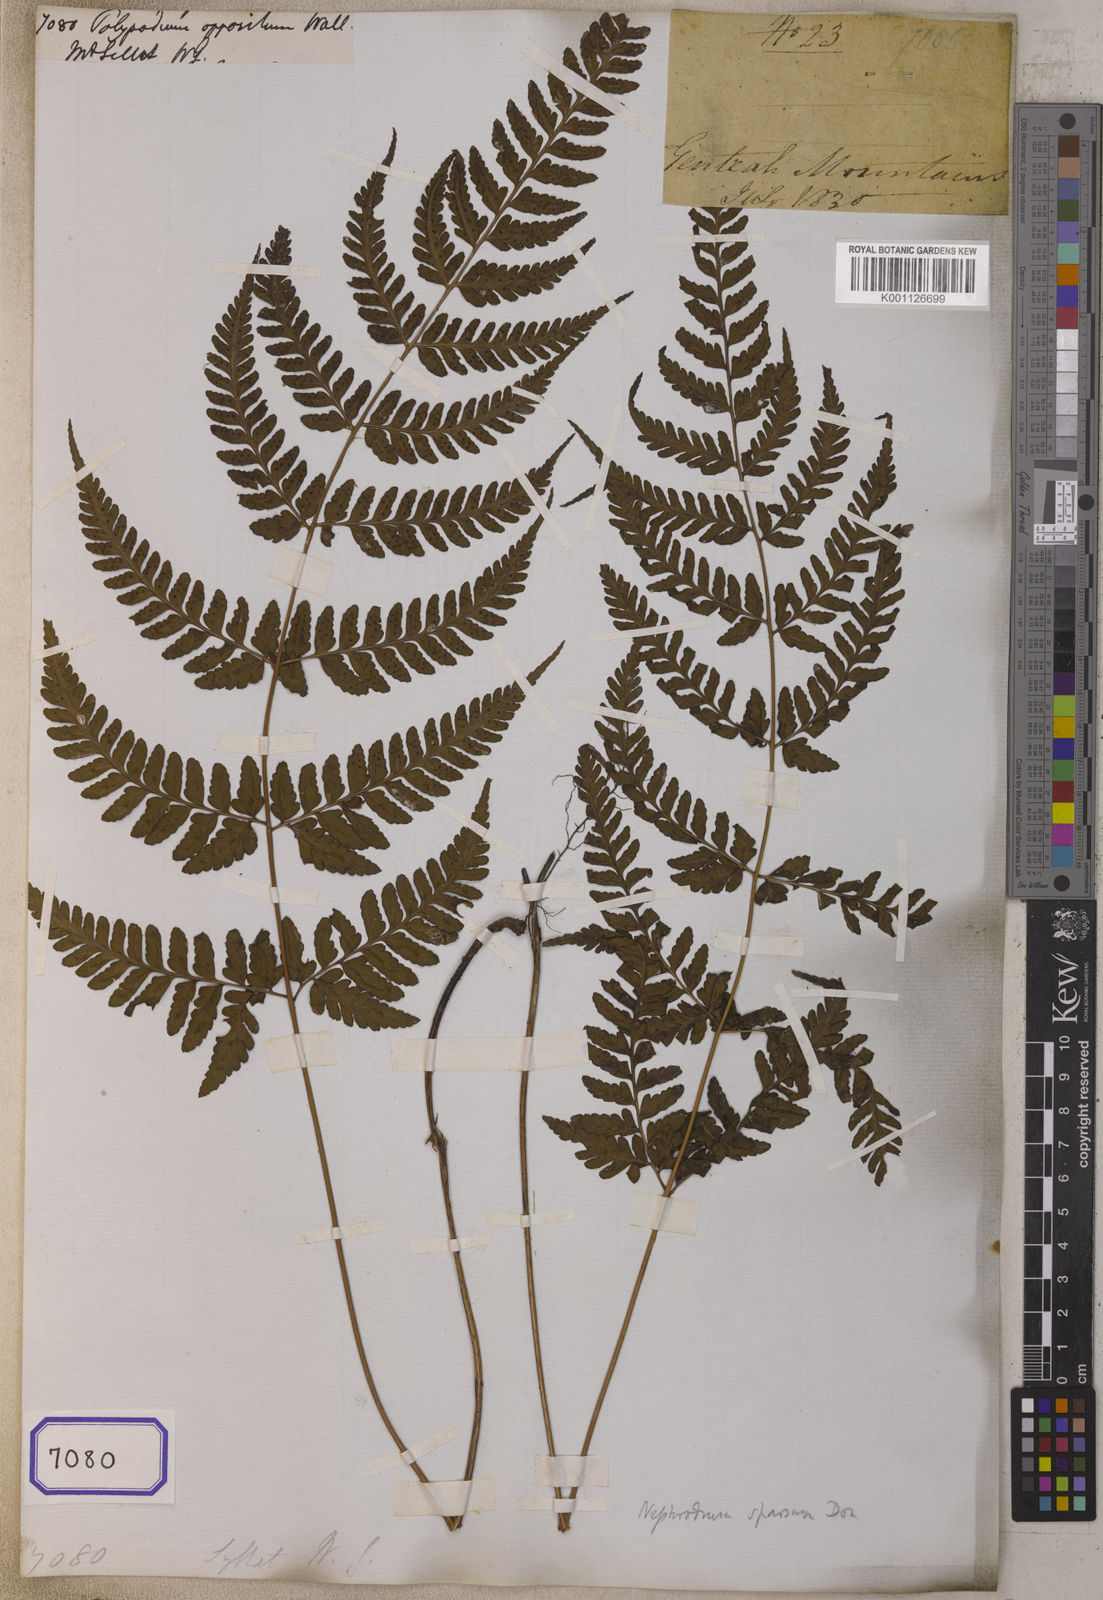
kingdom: Plantae
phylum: Tracheophyta
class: Polypodiopsida
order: Polypodiales
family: Dryopteridaceae
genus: Dryopteris
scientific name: Dryopteris sparsa
